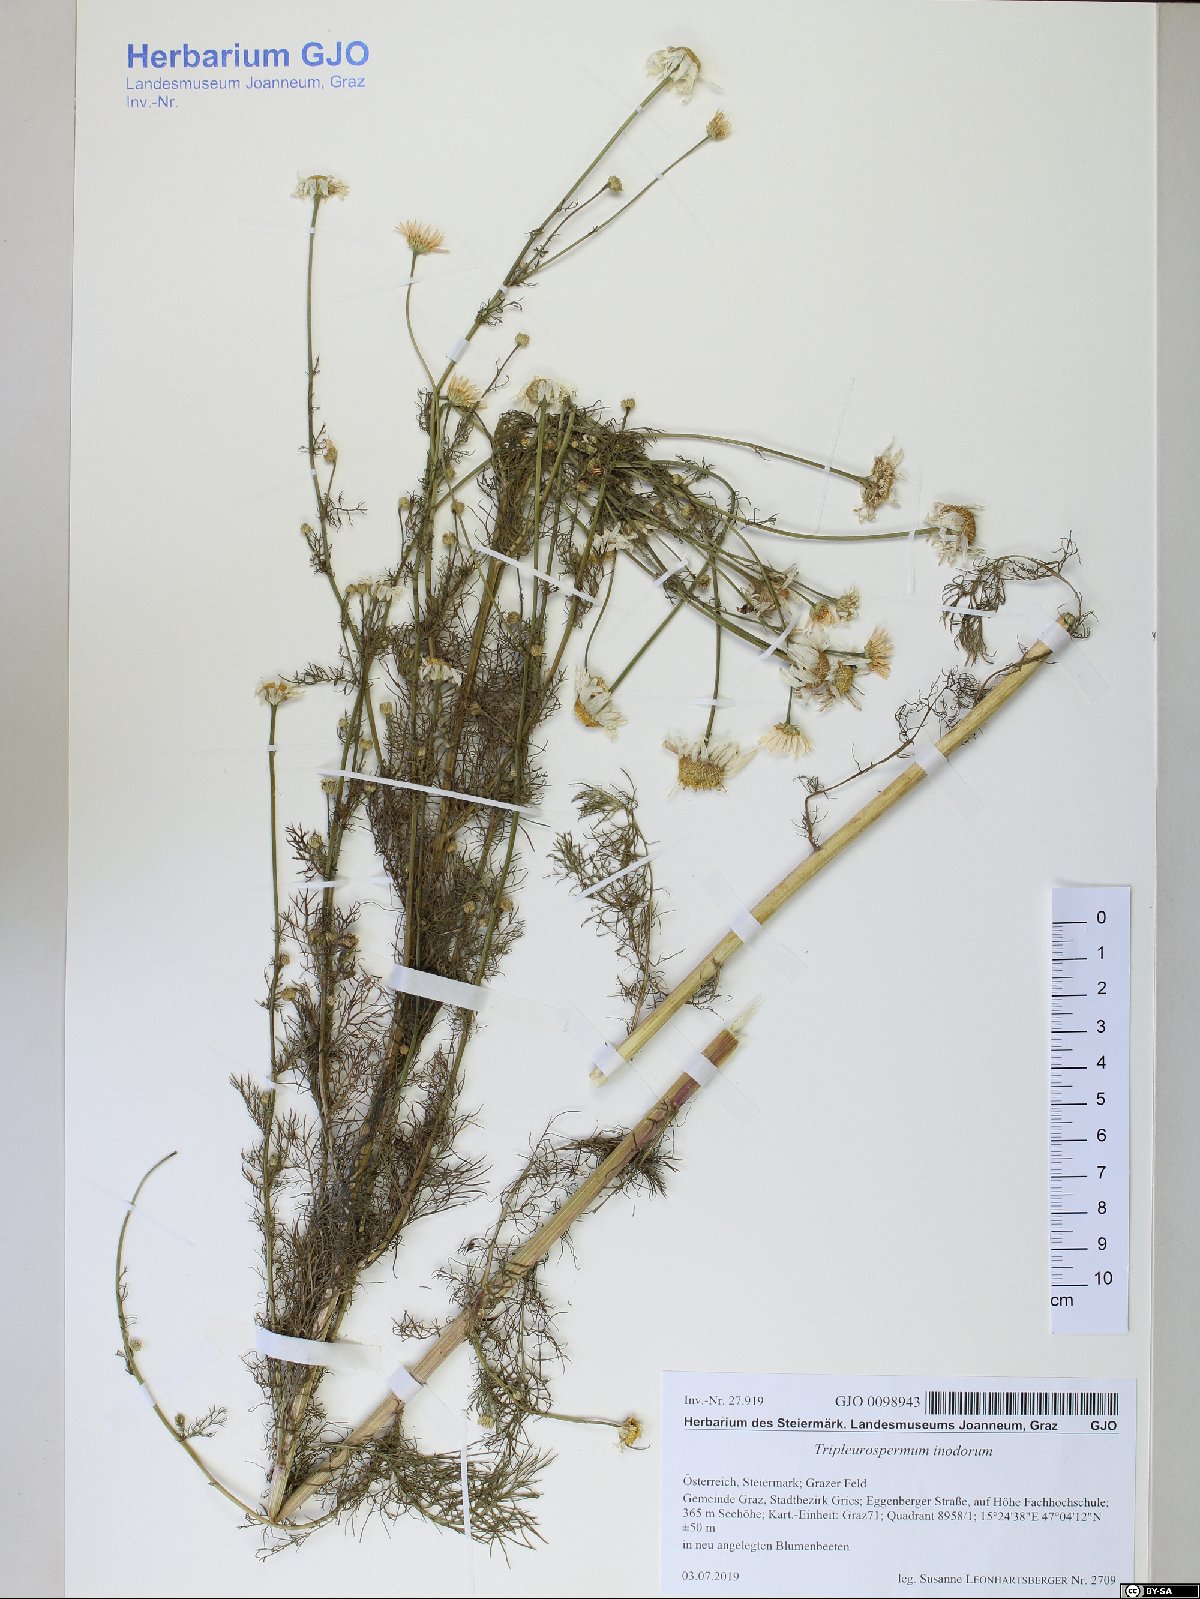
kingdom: Plantae
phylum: Tracheophyta
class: Magnoliopsida
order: Asterales
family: Asteraceae
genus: Tripleurospermum
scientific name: Tripleurospermum inodorum
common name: Scentless mayweed
